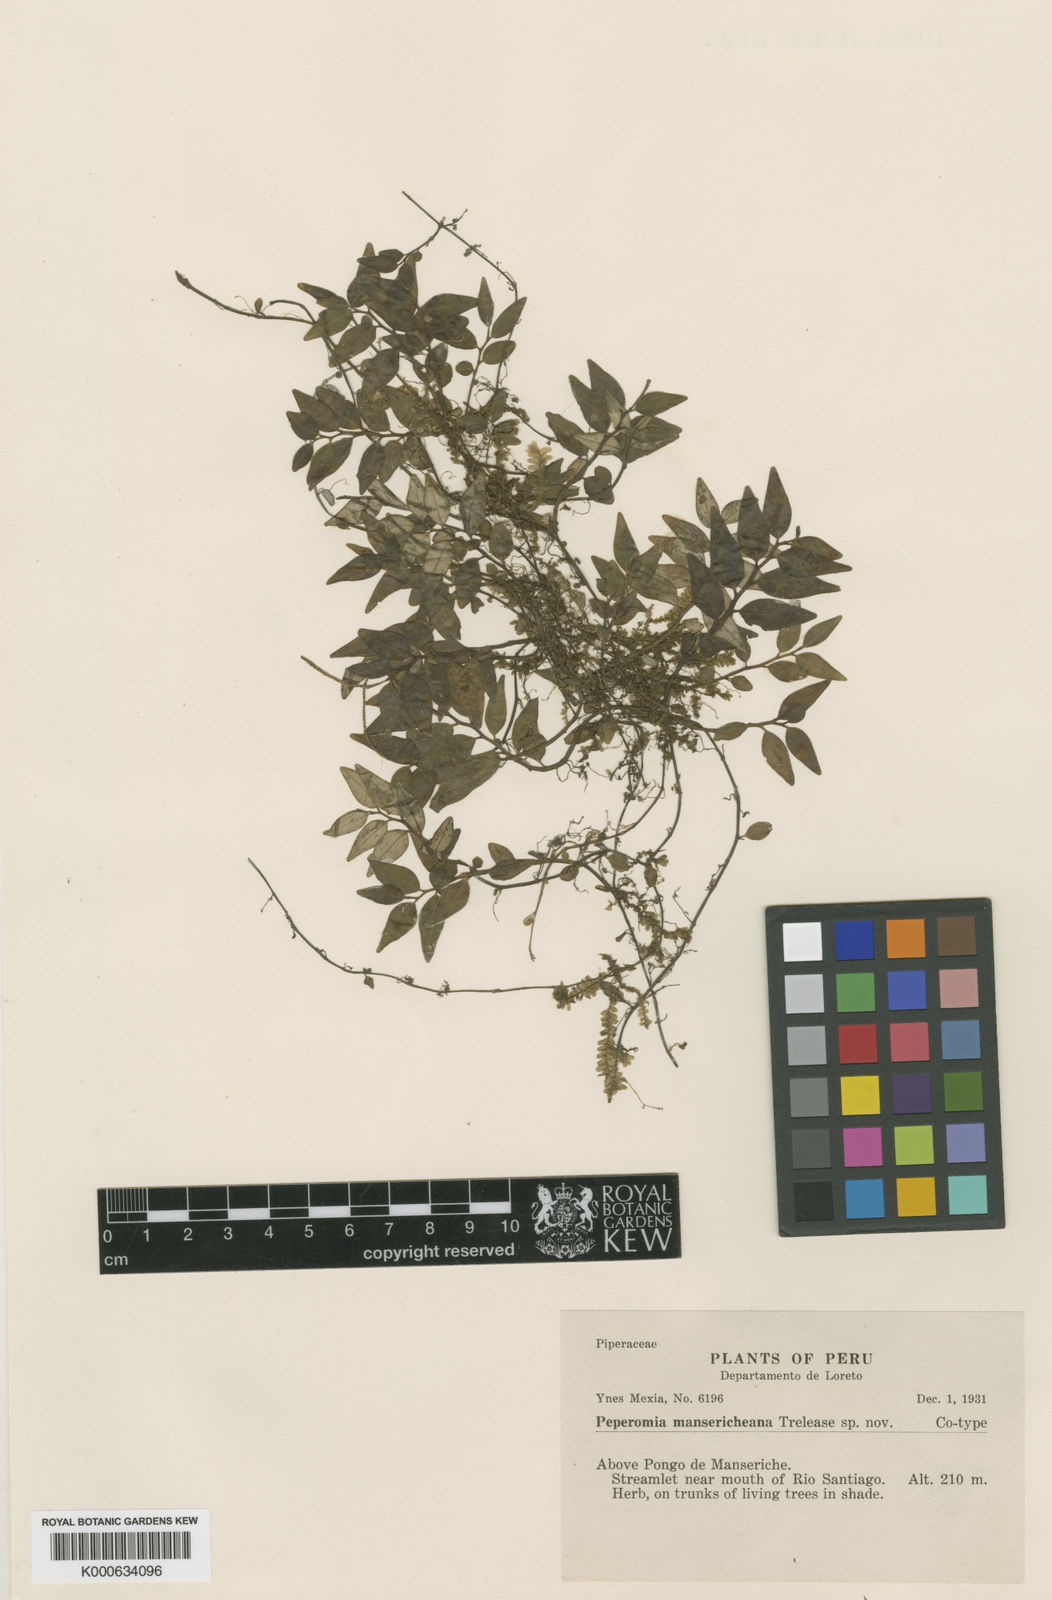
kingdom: Plantae
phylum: Tracheophyta
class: Magnoliopsida
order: Piperales
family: Piperaceae
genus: Peperomia
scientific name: Peperomia heterophylla
